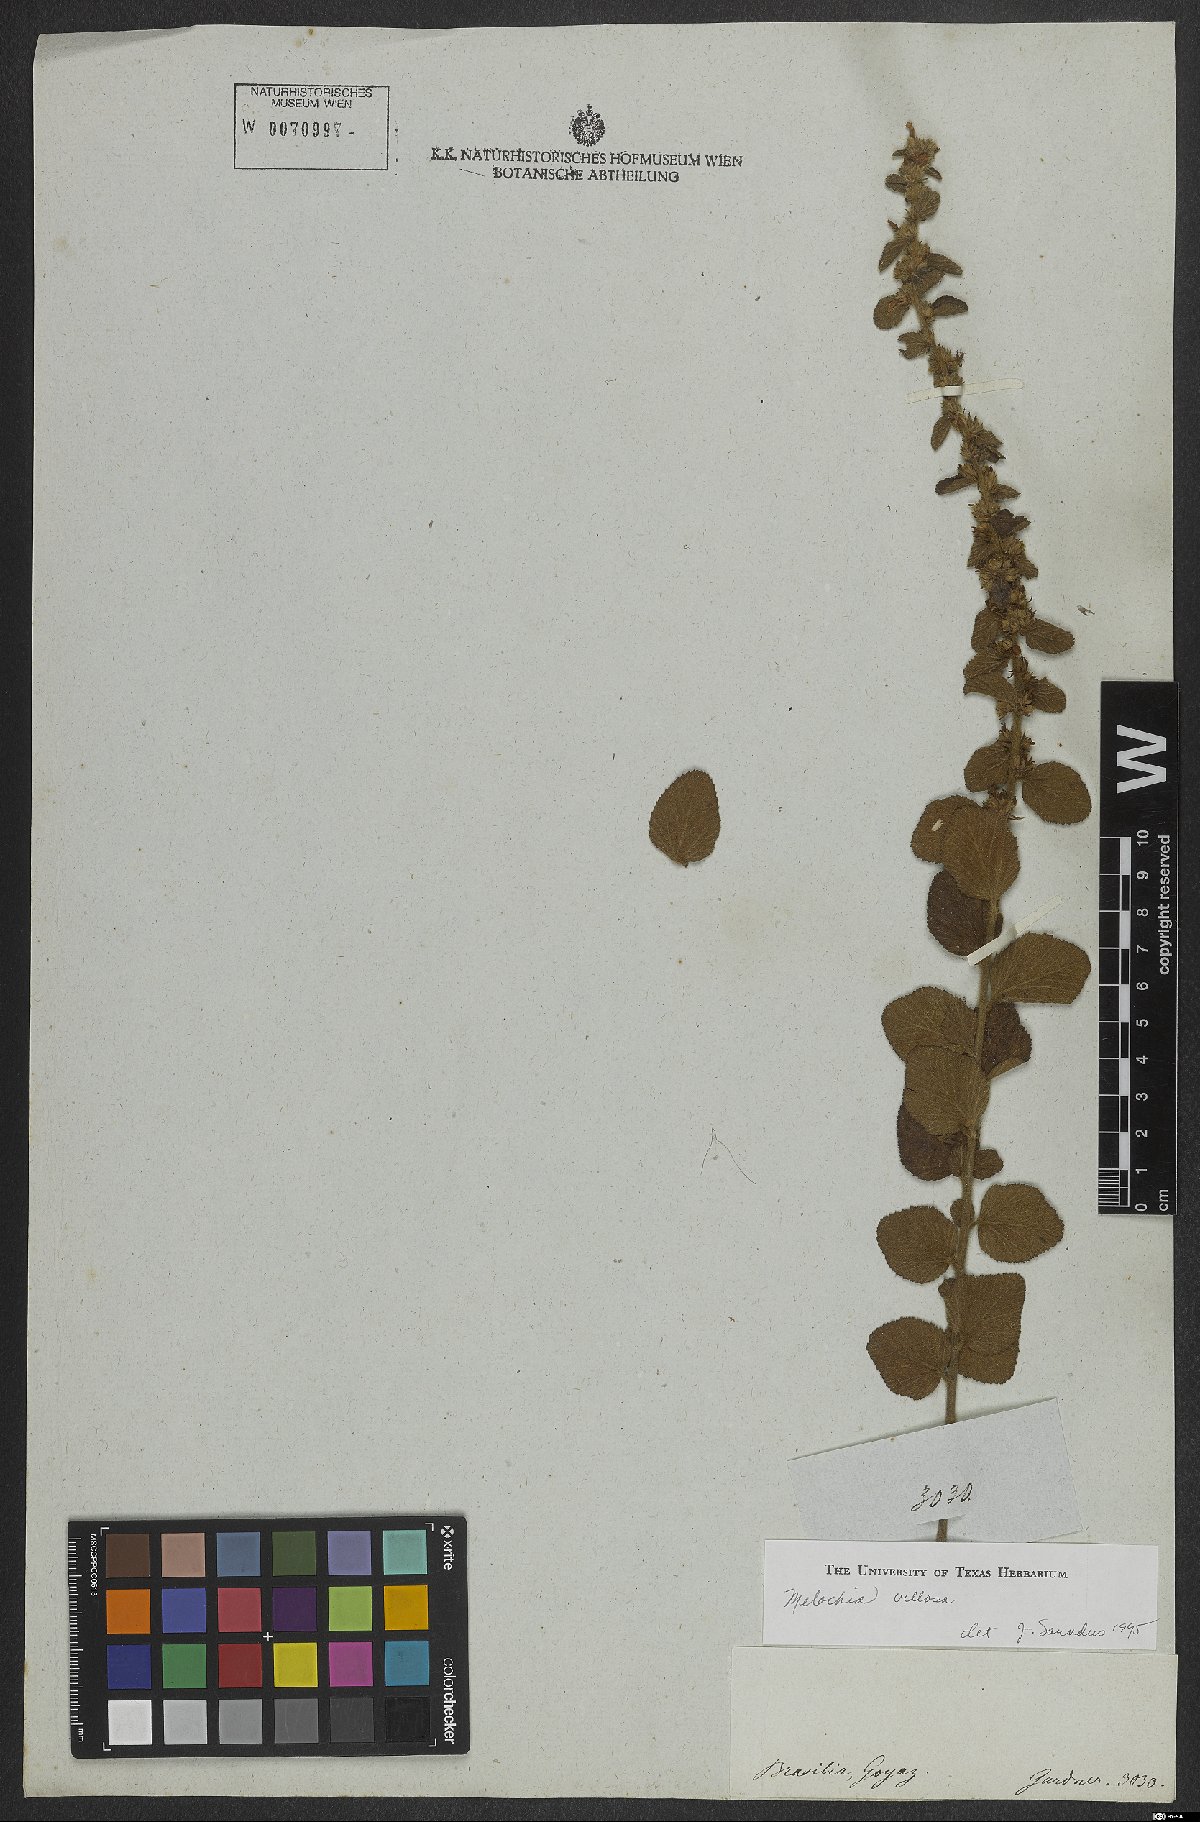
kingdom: Plantae
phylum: Tracheophyta
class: Magnoliopsida
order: Malvales
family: Malvaceae
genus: Melochia
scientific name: Melochia spicata
